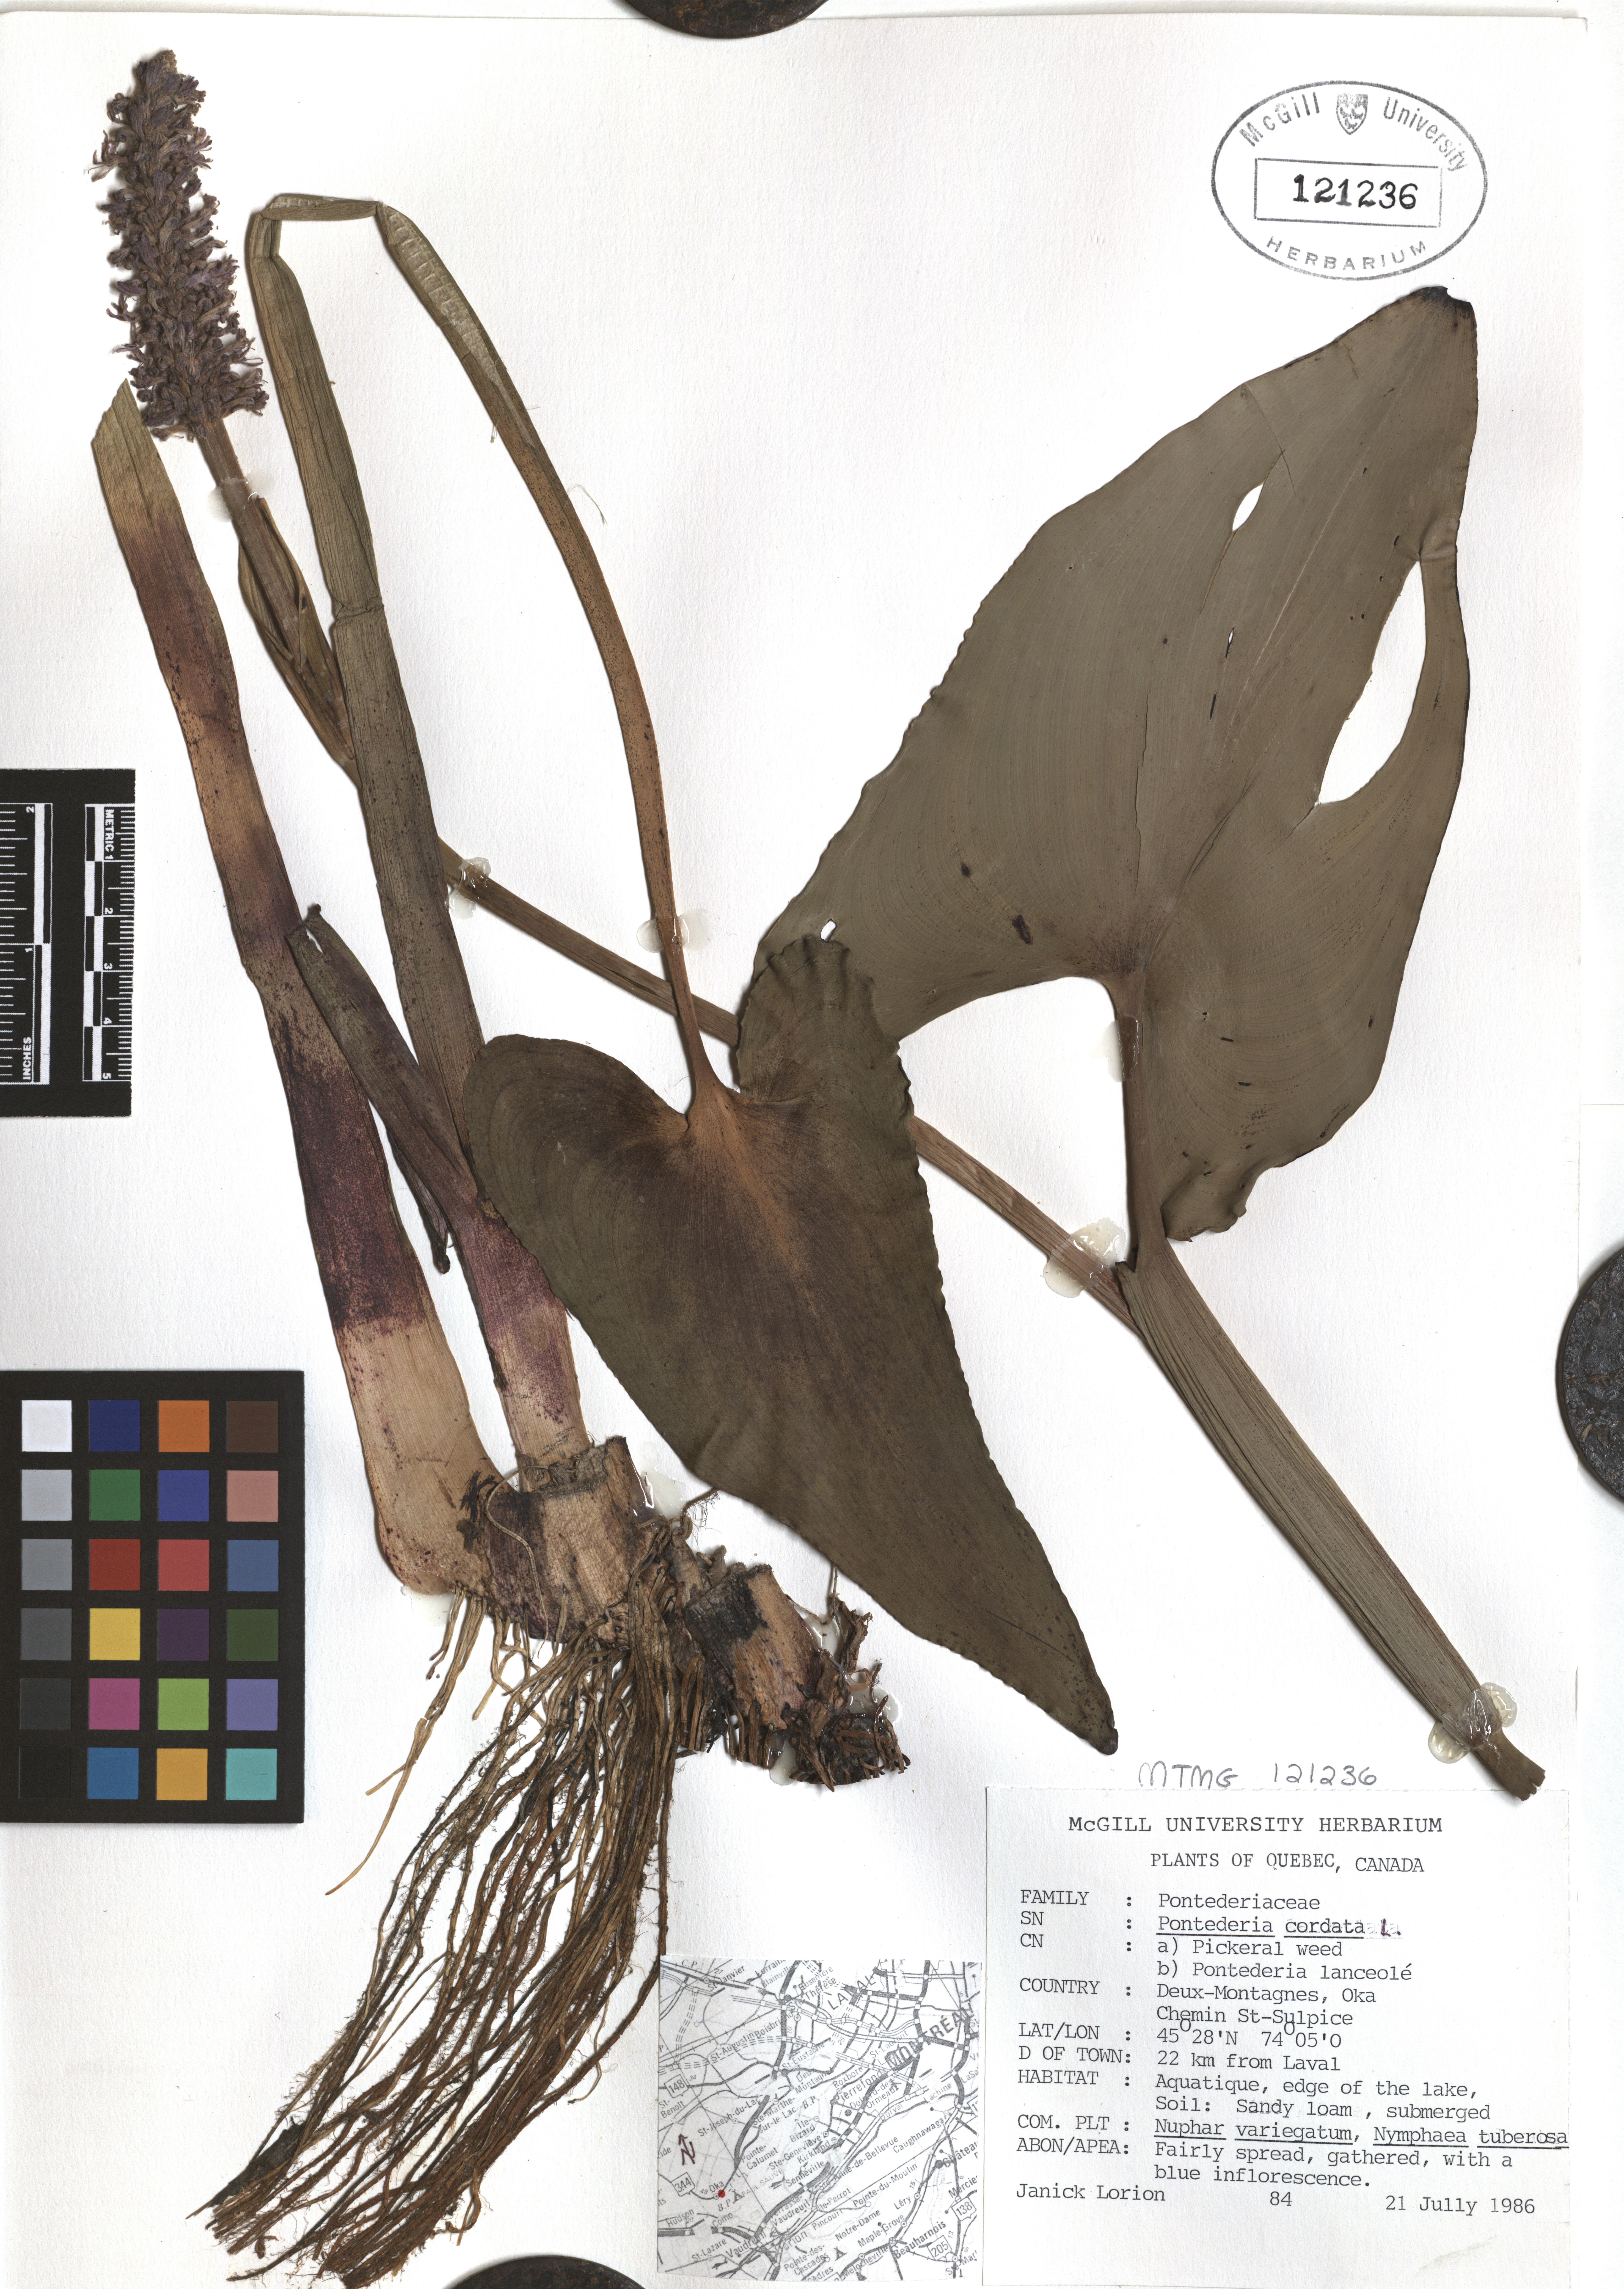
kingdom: Plantae
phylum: Tracheophyta
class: Liliopsida
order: Commelinales
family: Pontederiaceae
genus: Pontederia
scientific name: Pontederia cordata
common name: Pickerelweed
